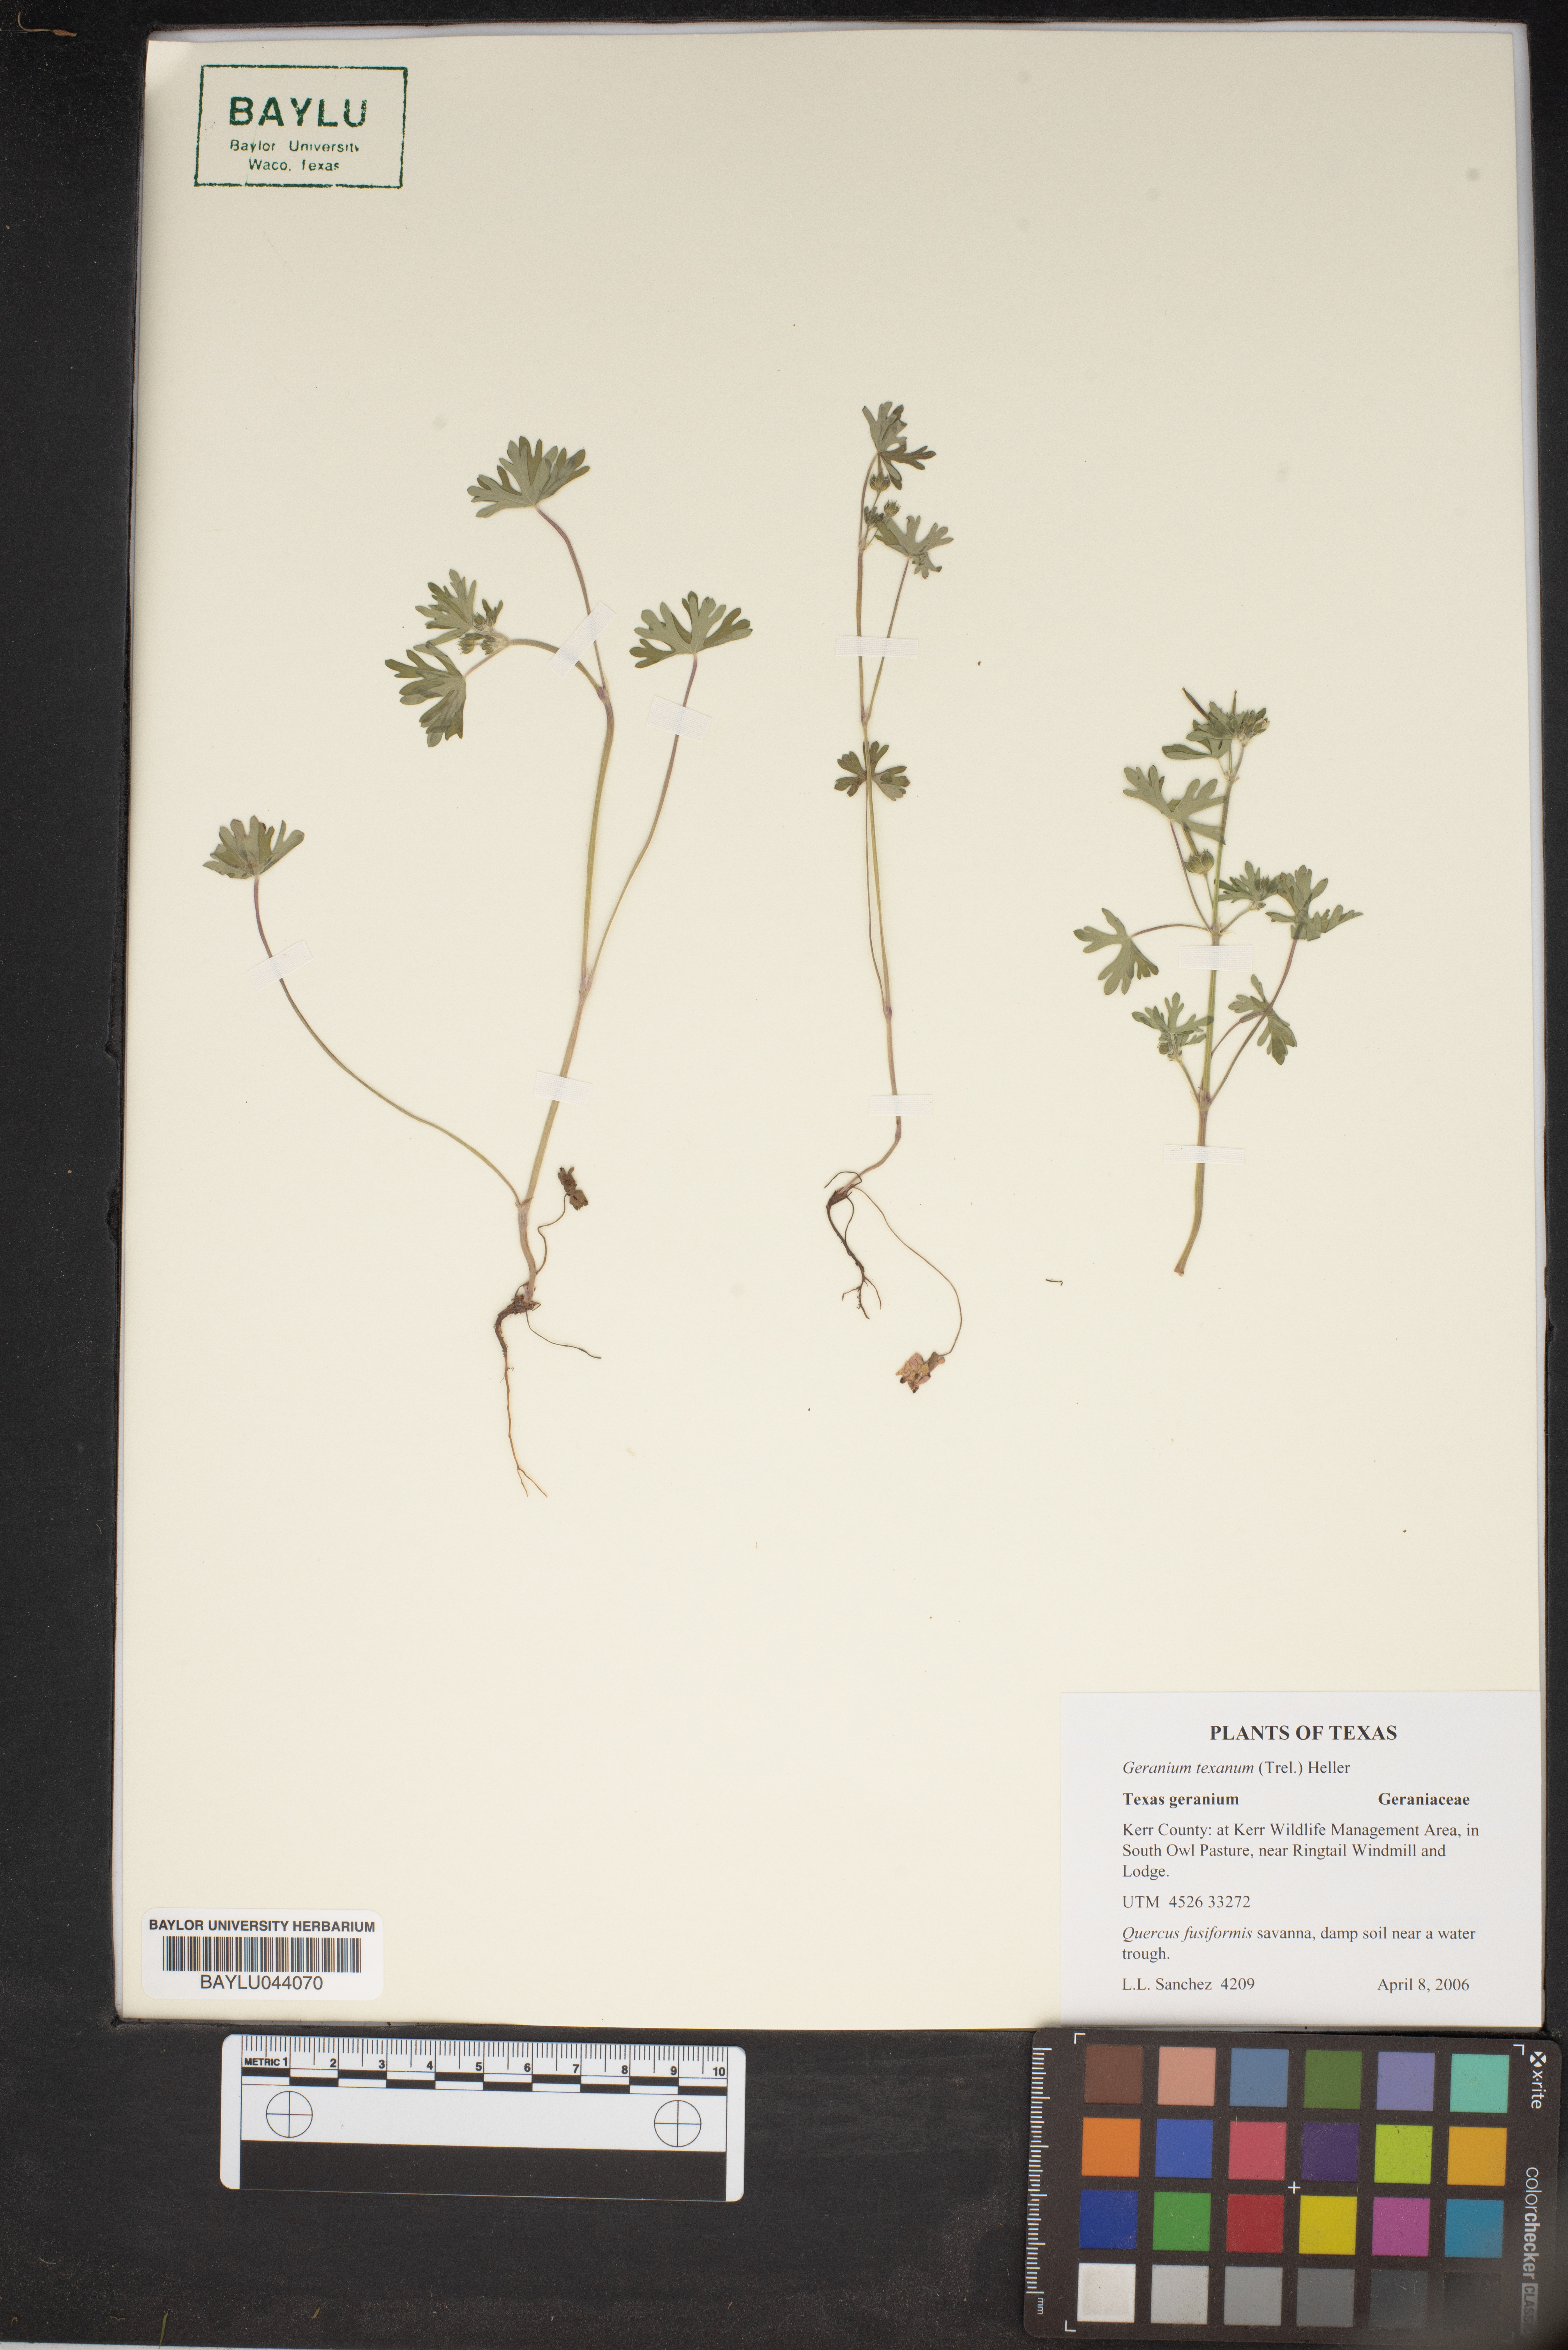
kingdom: Plantae
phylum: Tracheophyta
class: Magnoliopsida
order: Geraniales
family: Geraniaceae
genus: Geranium
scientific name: Geranium texanum
